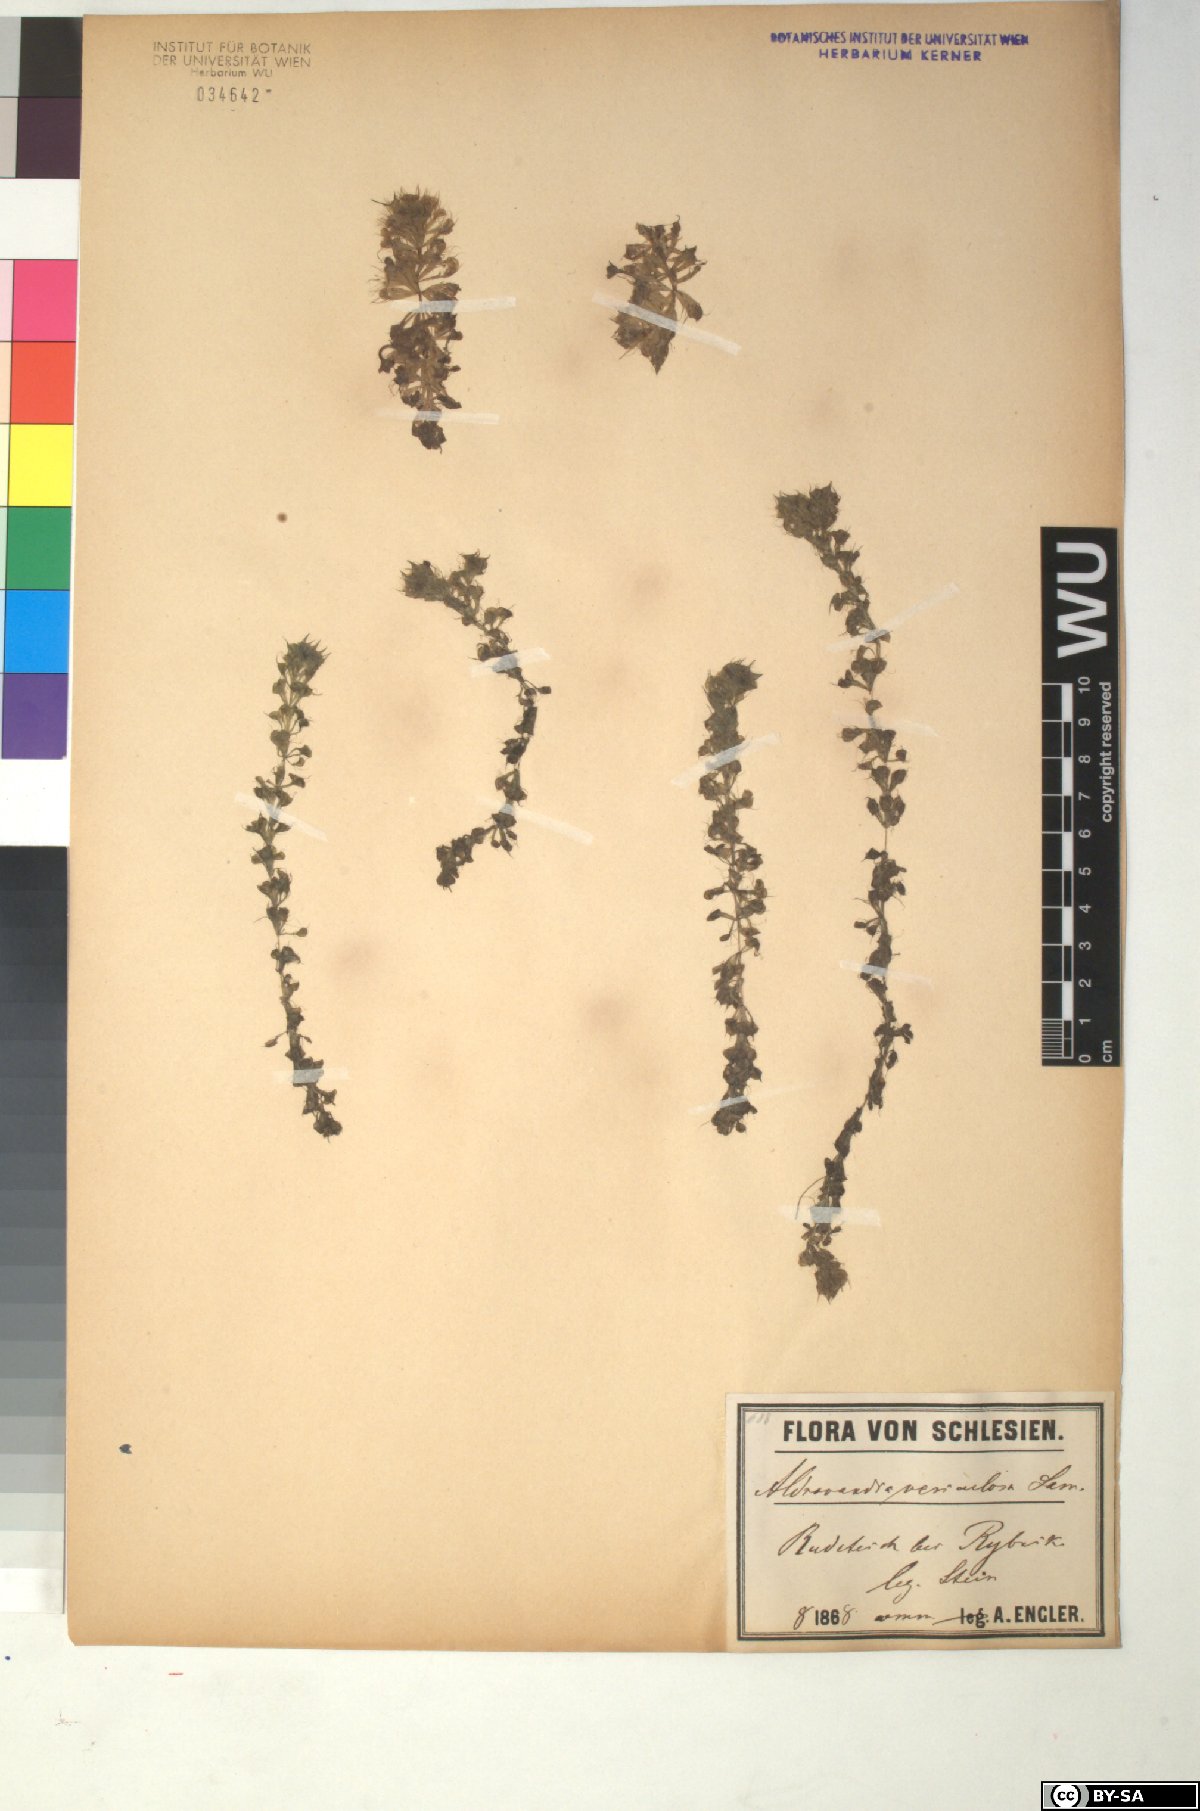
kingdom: Plantae
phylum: Tracheophyta
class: Magnoliopsida
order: Caryophyllales
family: Droseraceae
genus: Aldrovanda
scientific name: Aldrovanda vesiculosa
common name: Waterwheel plant
